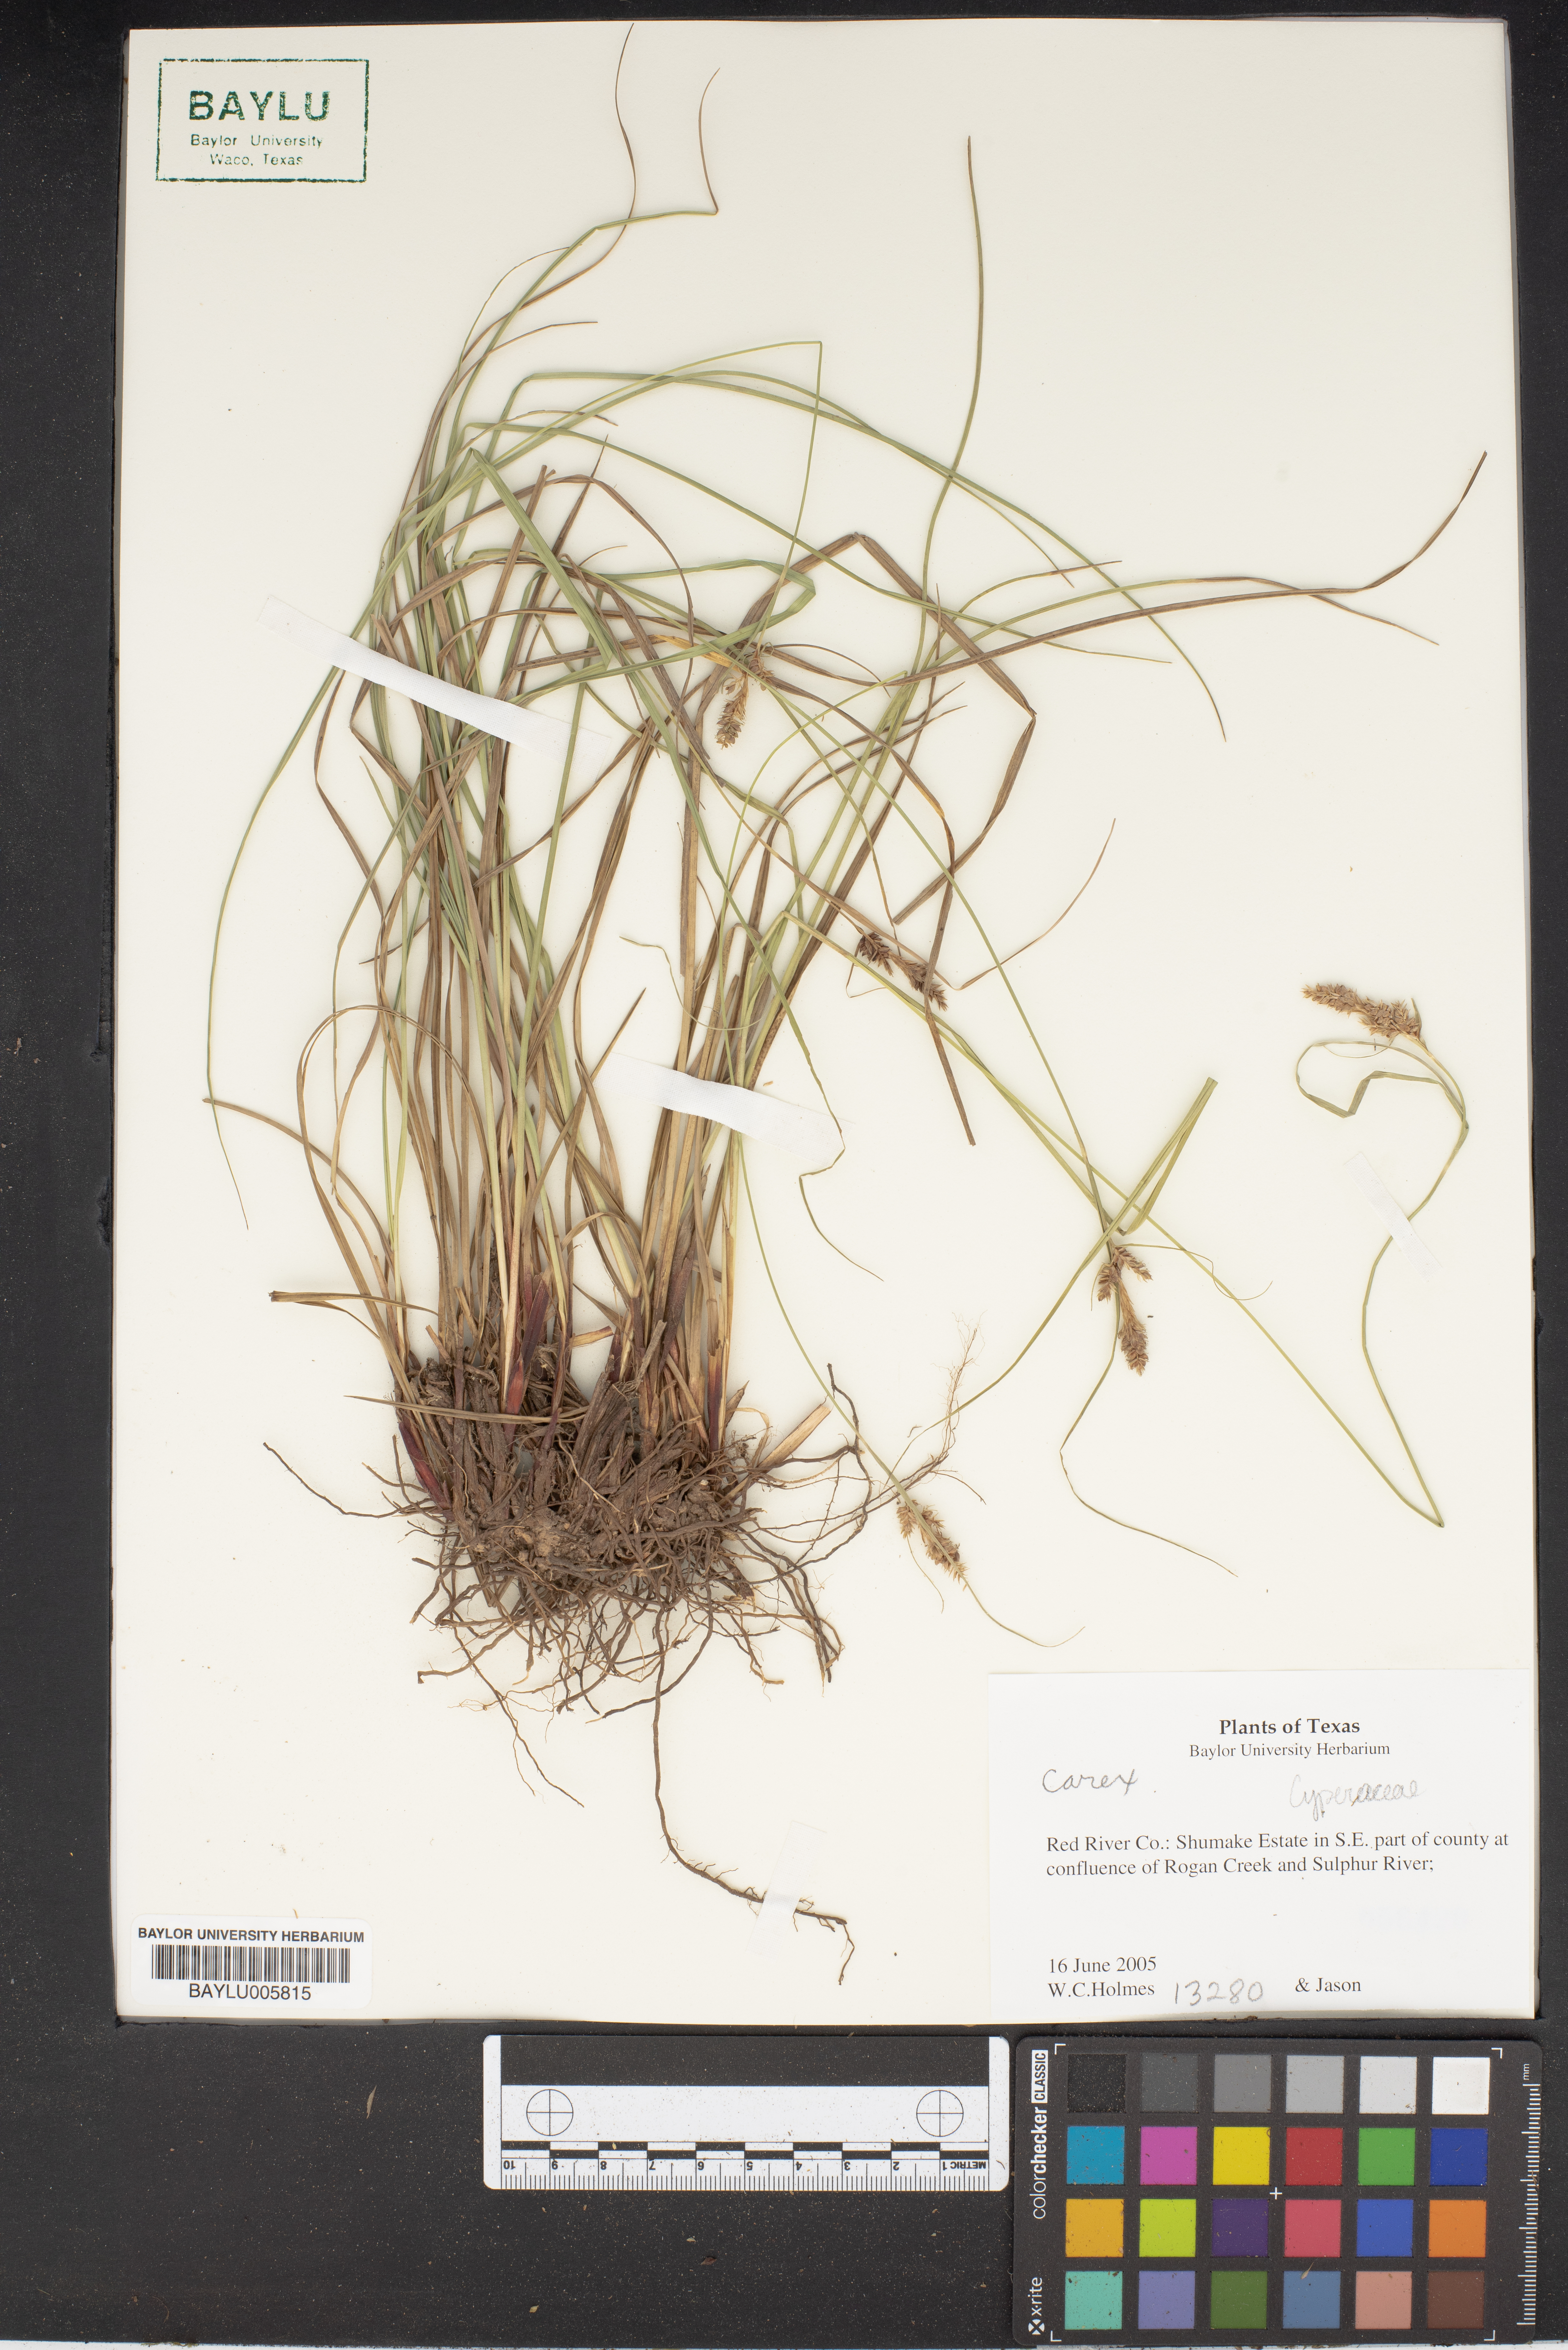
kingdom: Plantae
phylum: Tracheophyta
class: Liliopsida
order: Poales
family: Cyperaceae
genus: Carex
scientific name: Carex
